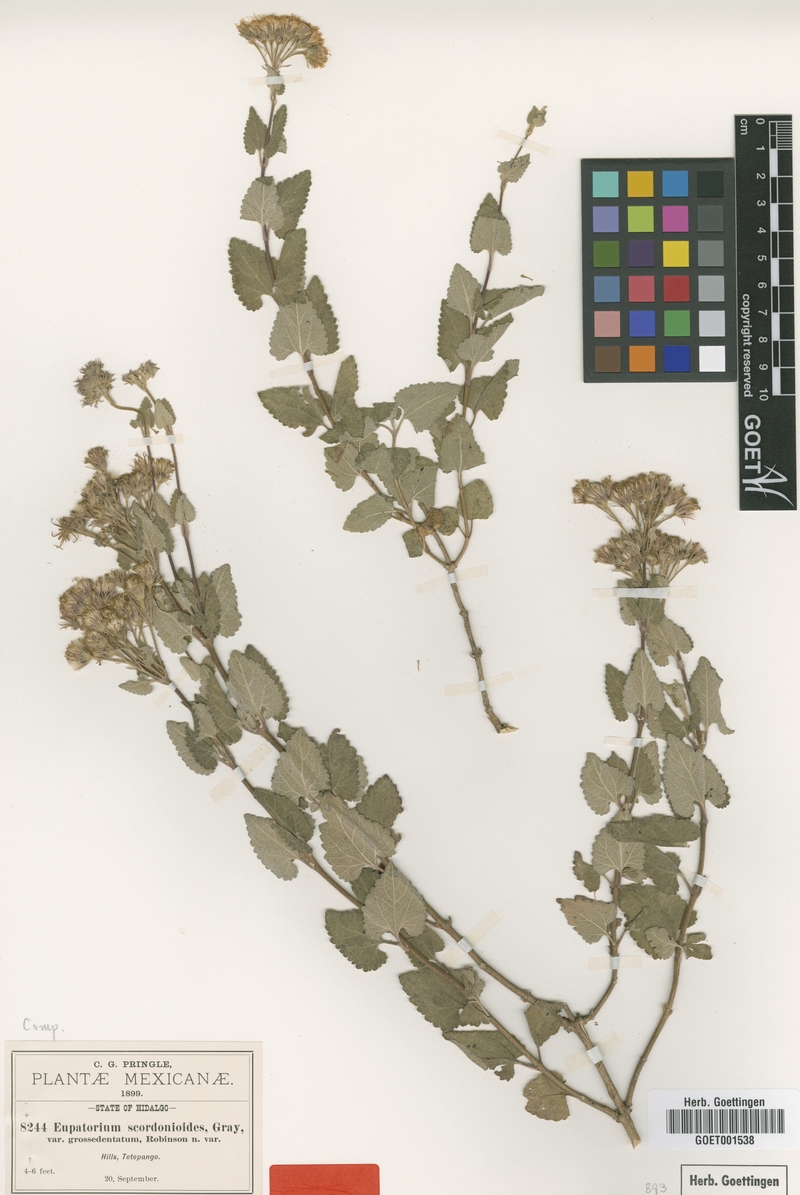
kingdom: Plantae
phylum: Tracheophyta
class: Magnoliopsida
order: Asterales
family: Asteraceae
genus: Ageratina
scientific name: Ageratina scorodonioides
